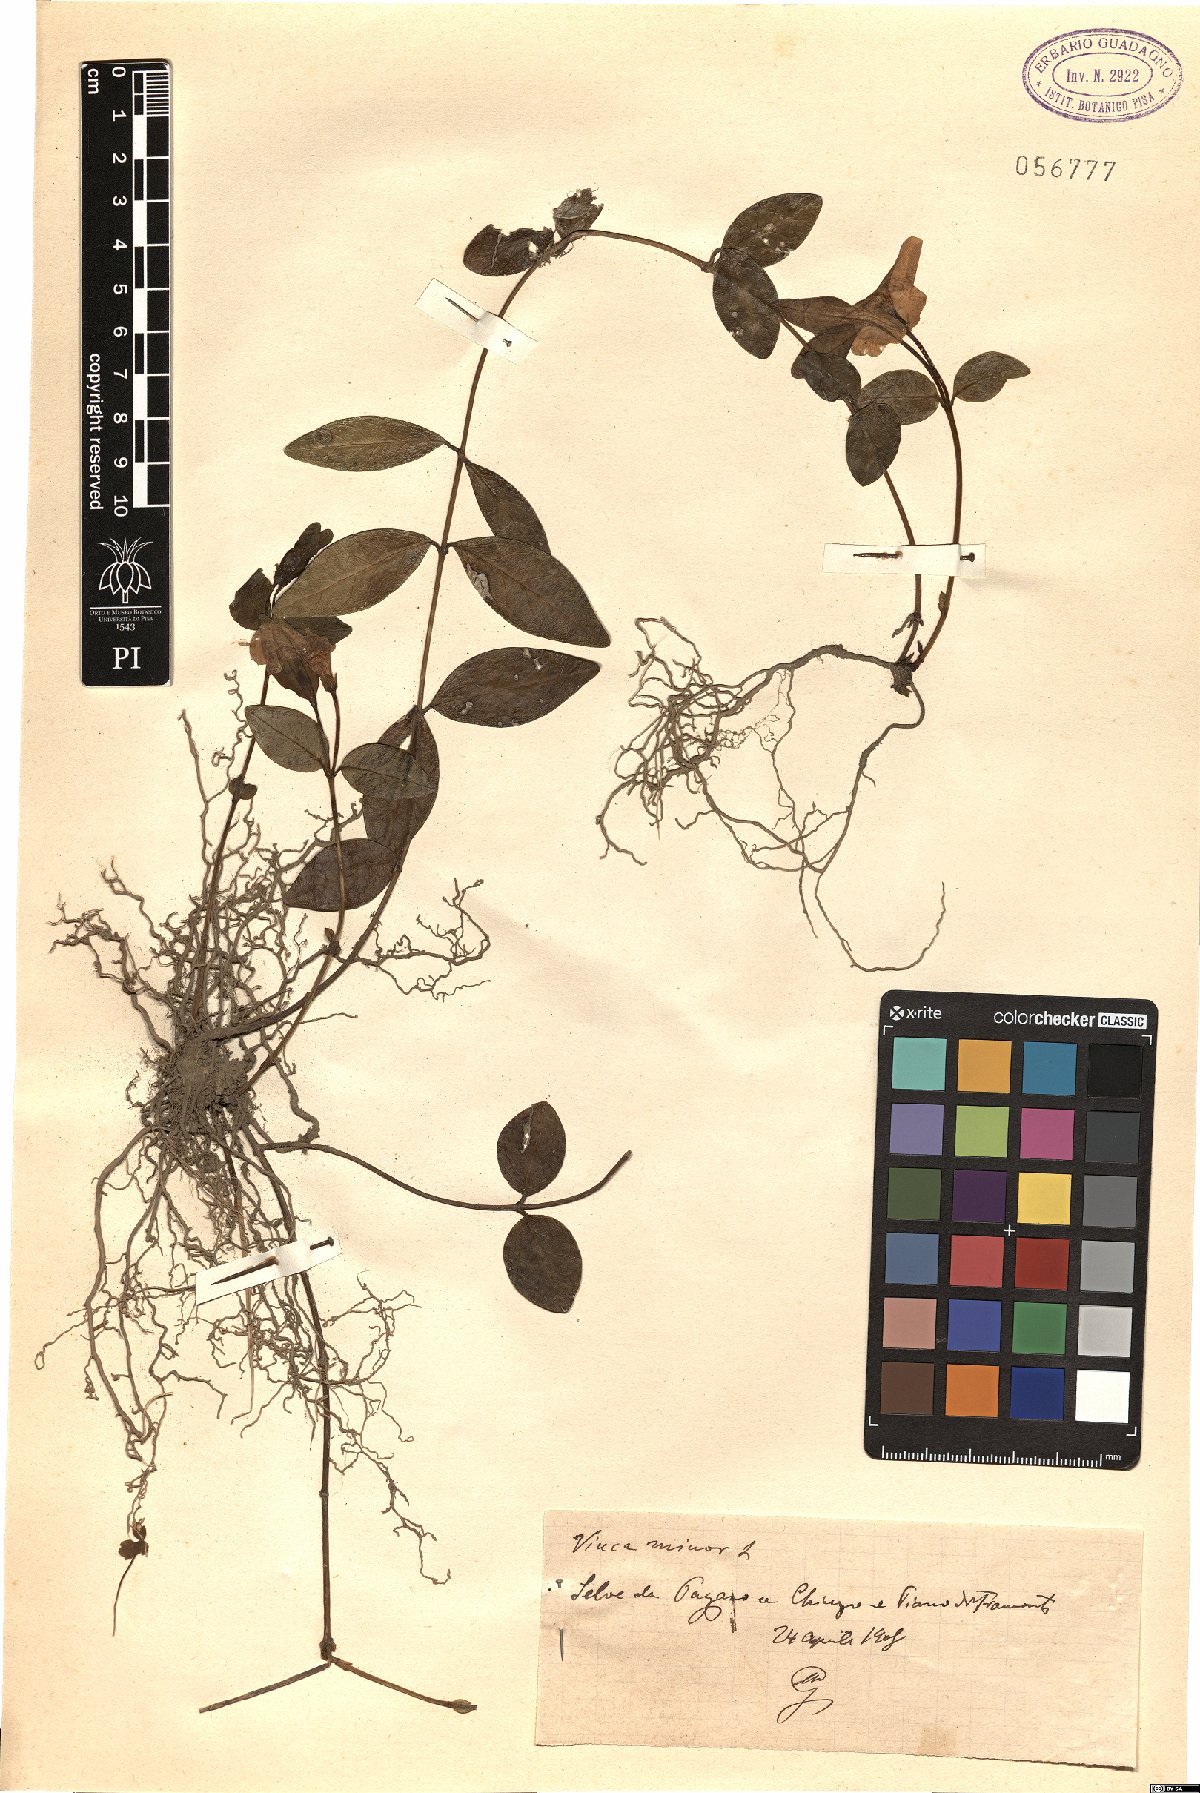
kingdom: Plantae
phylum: Tracheophyta
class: Magnoliopsida
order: Gentianales
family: Apocynaceae
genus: Vinca
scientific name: Vinca minor
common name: Lesser periwinkle
